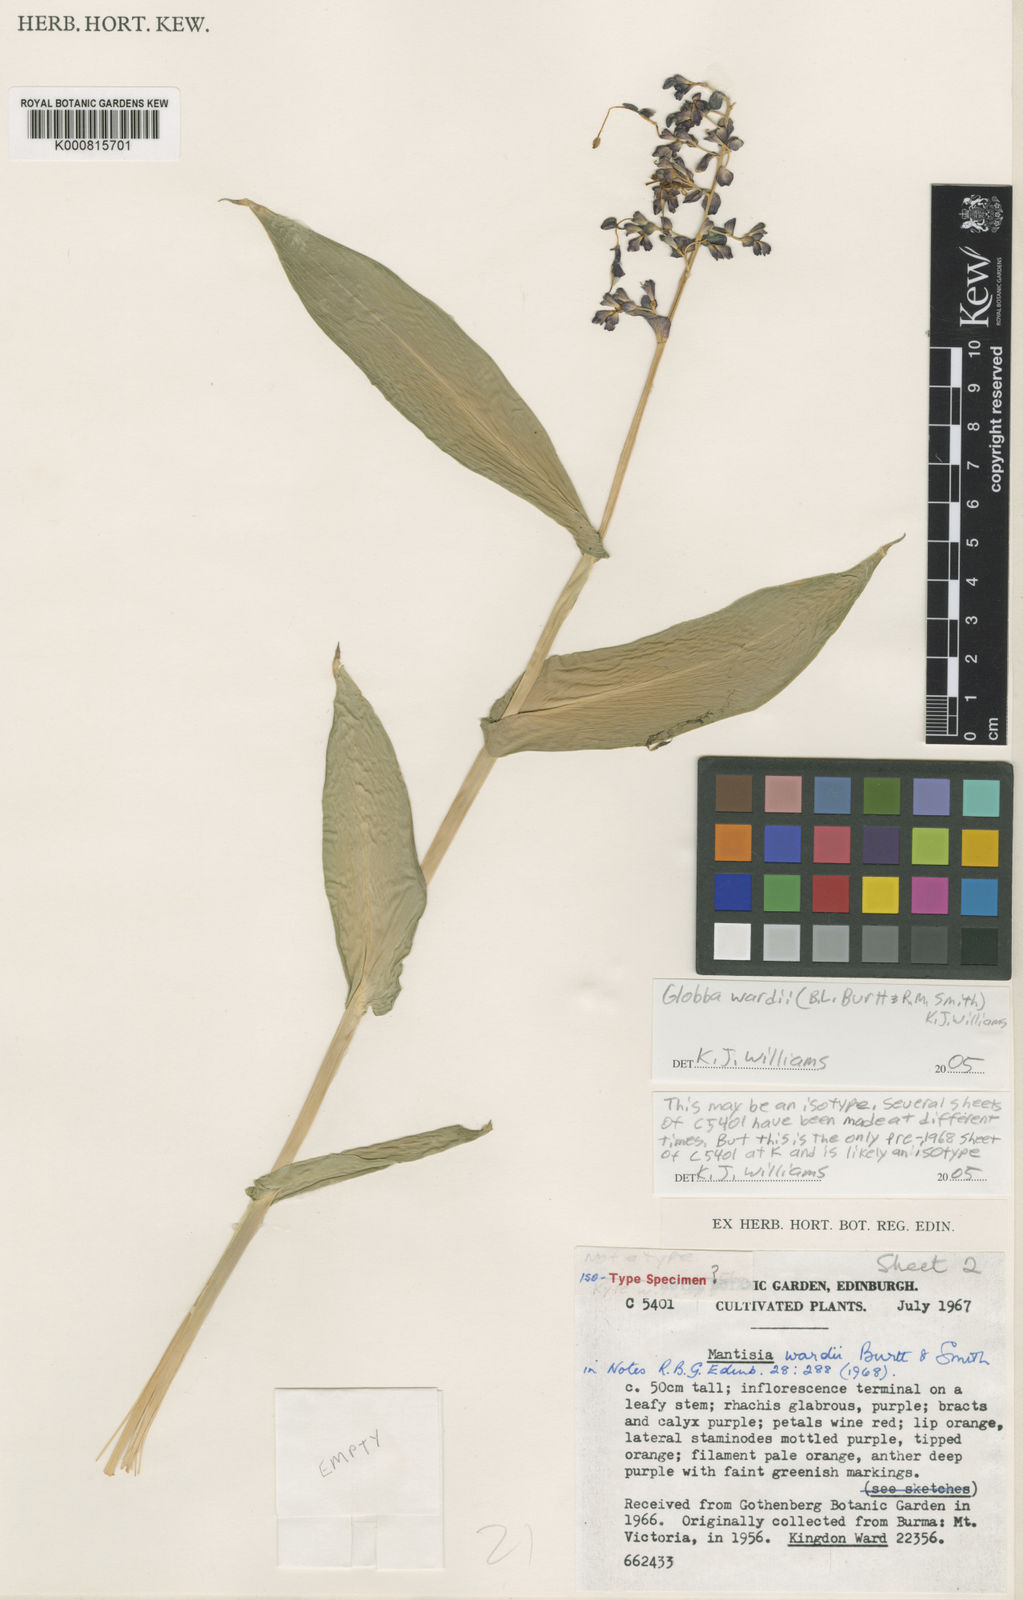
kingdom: Plantae
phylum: Tracheophyta
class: Liliopsida
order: Zingiberales
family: Zingiberaceae
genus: Globba
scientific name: Globba wardii
